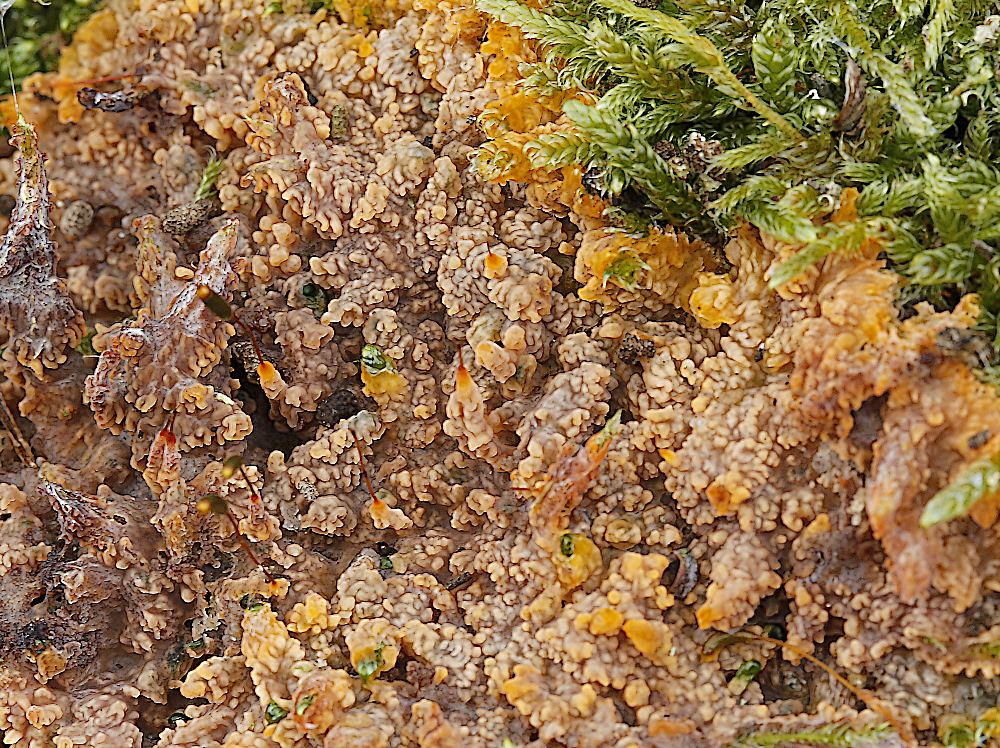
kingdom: Fungi
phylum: Basidiomycota
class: Agaricomycetes
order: Polyporales
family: Meruliaceae
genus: Phlebia
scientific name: Phlebia radiata
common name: stråle-åresvamp
